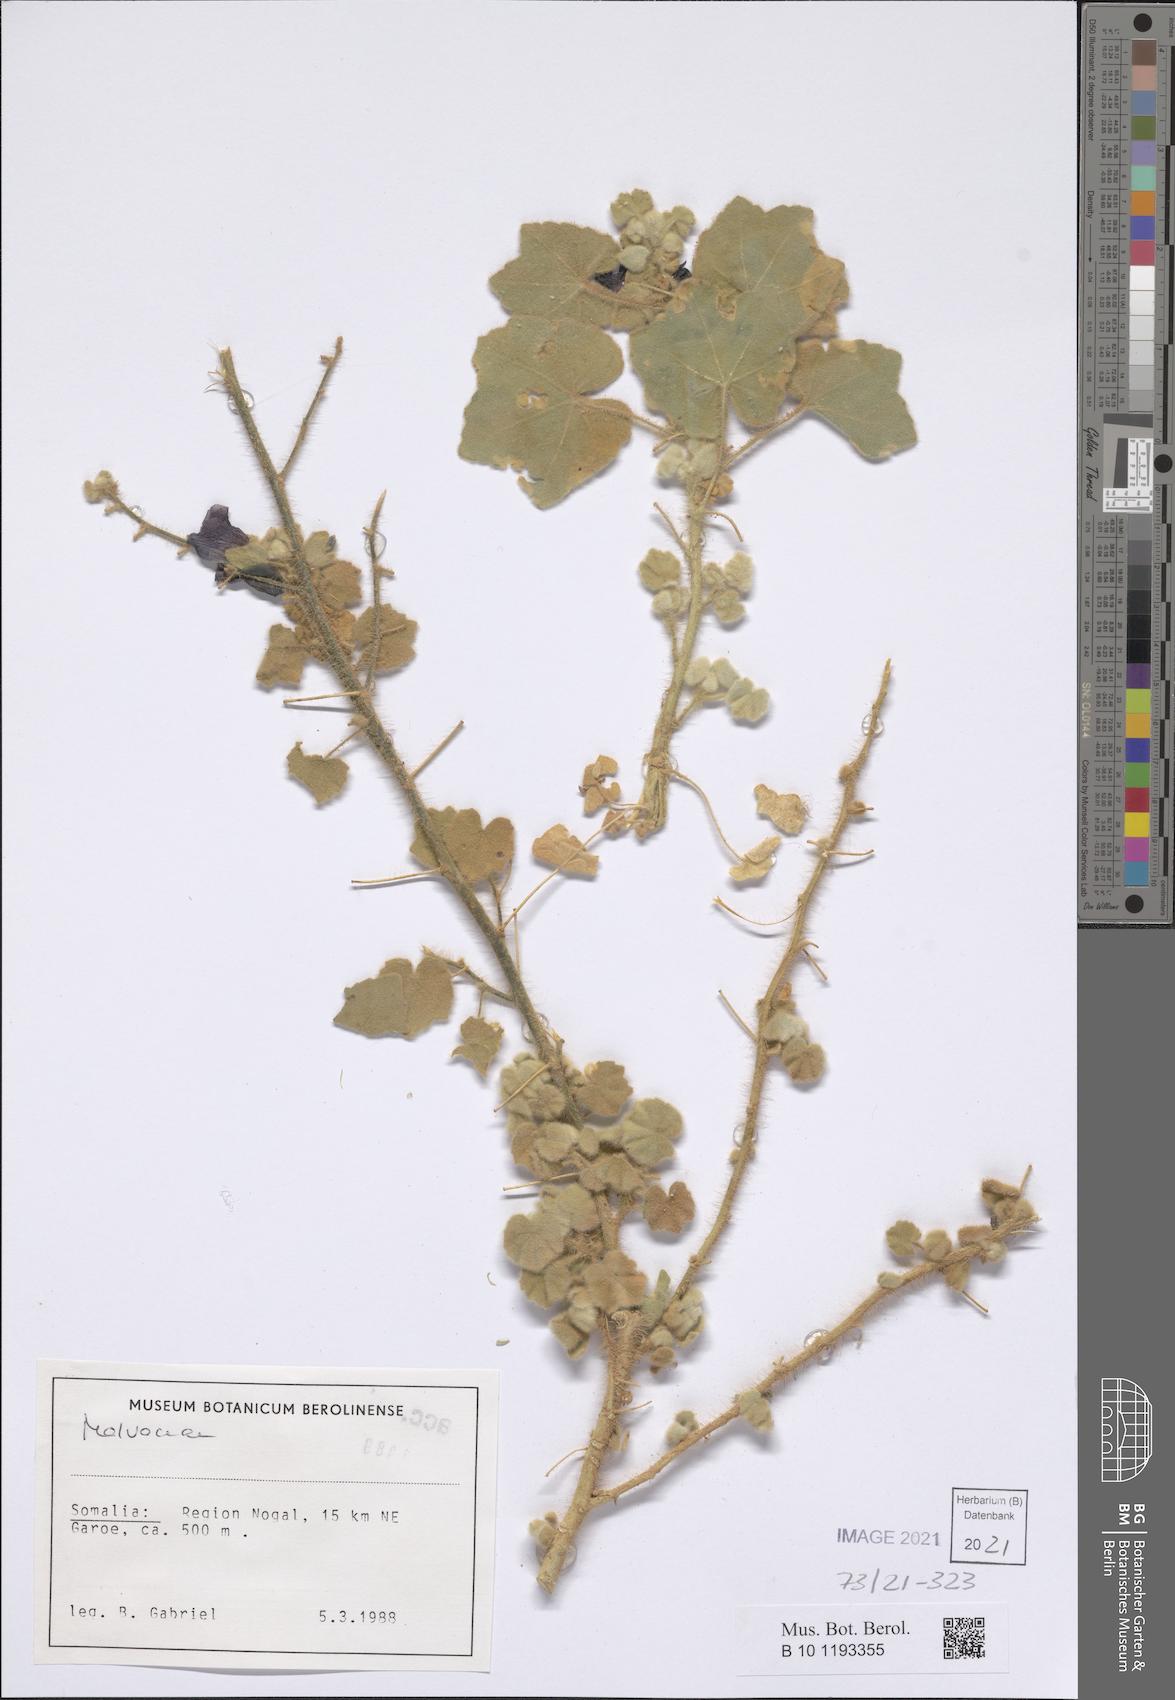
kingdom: Plantae
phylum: Tracheophyta
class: Magnoliopsida
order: Malvales
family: Malvaceae
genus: Senra
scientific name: Senra incana
